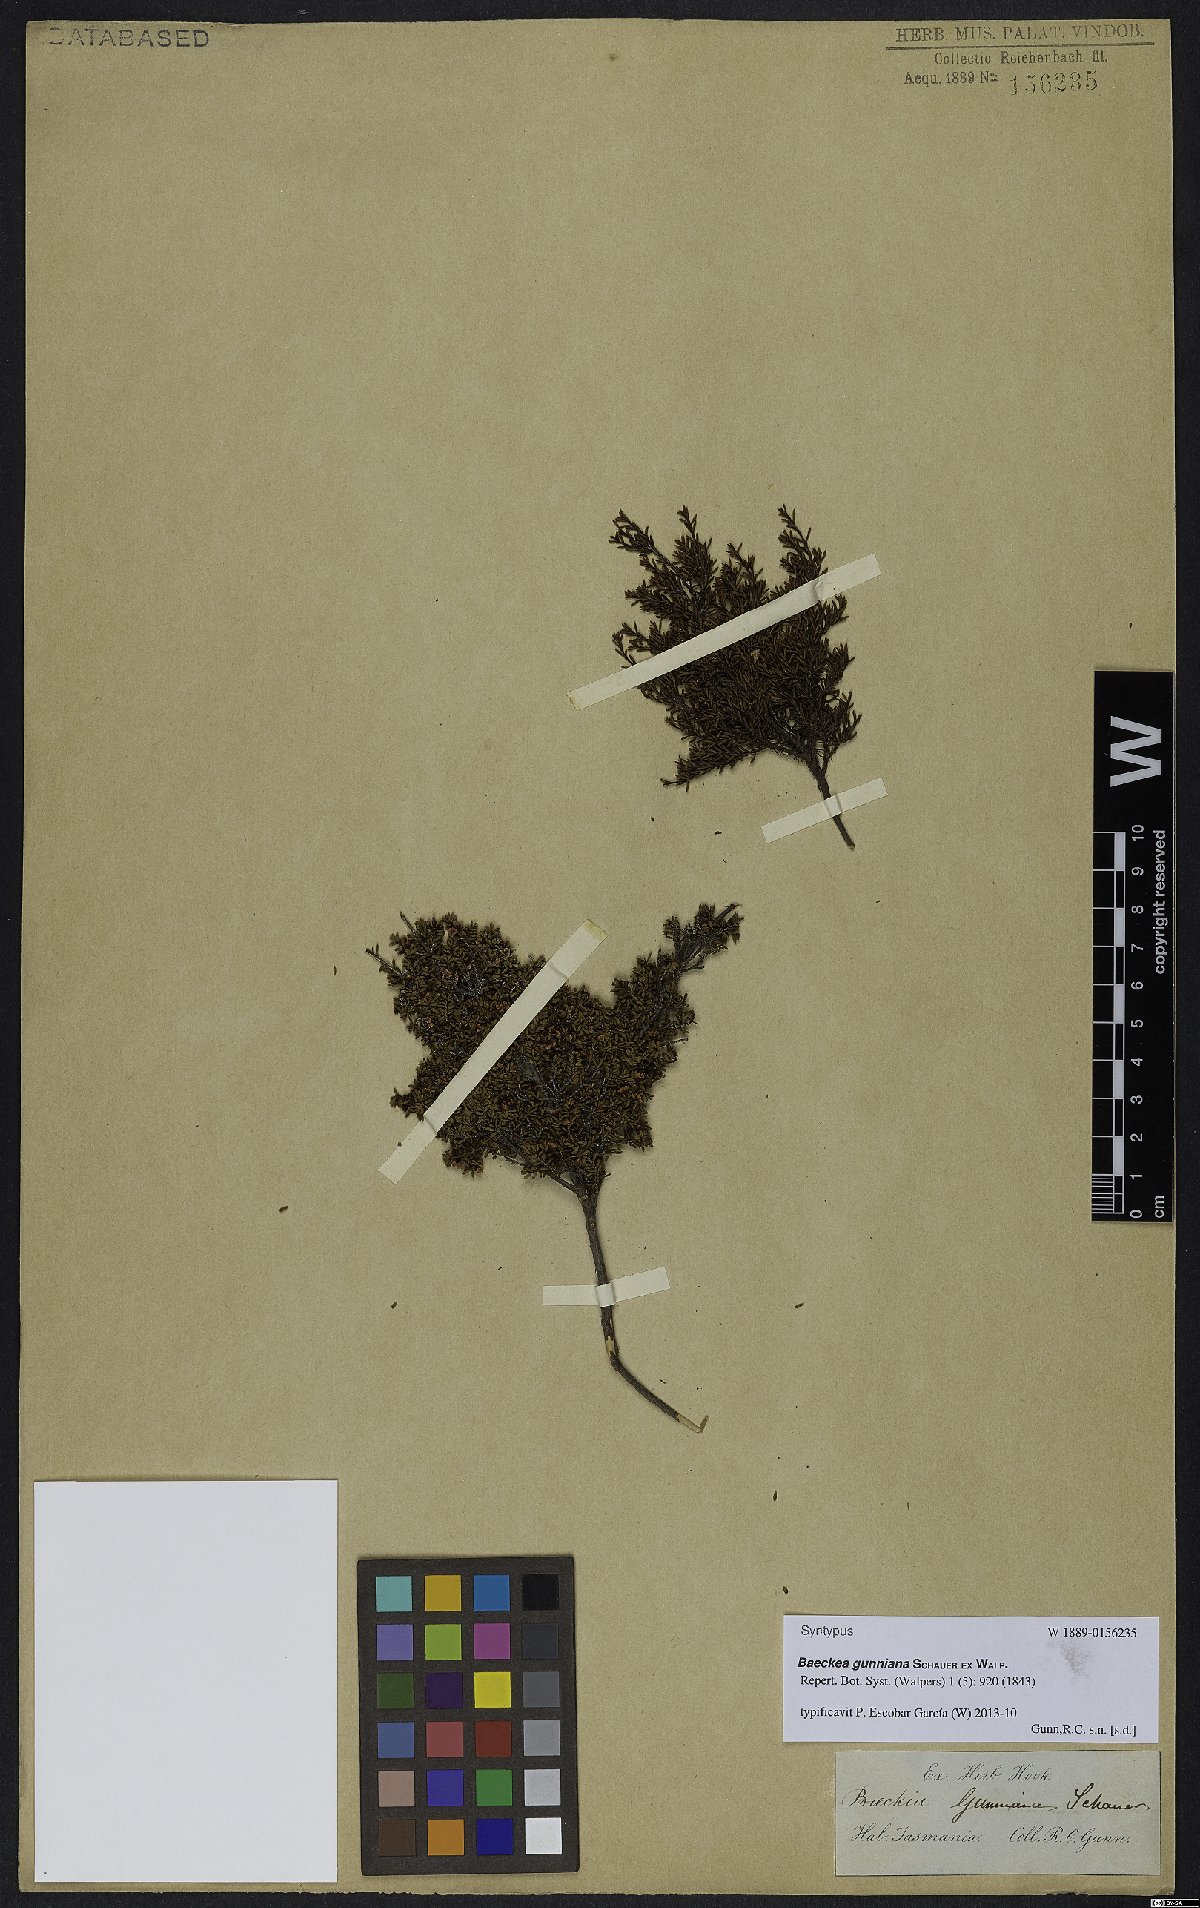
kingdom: Plantae
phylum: Tracheophyta
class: Magnoliopsida
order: Myrtales
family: Myrtaceae
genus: Baeckea
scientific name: Baeckea gunniana
